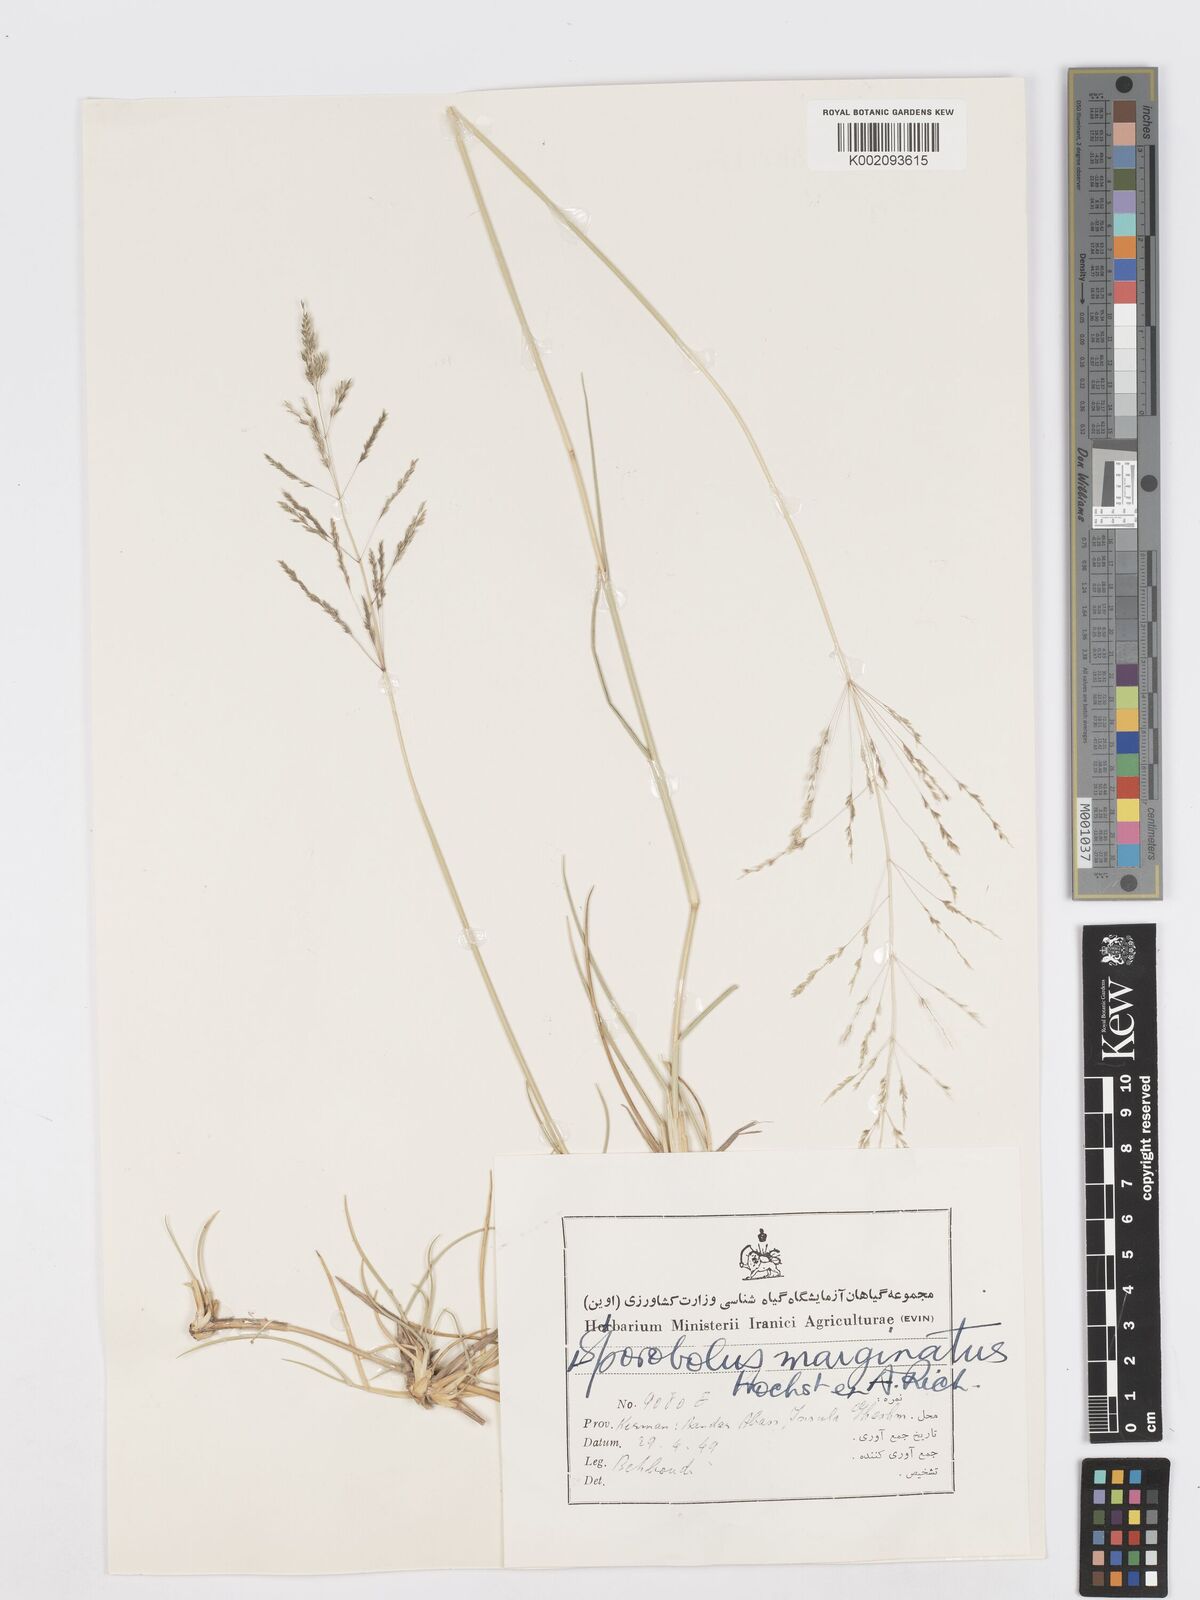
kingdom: Plantae
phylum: Tracheophyta
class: Liliopsida
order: Poales
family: Poaceae
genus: Sporobolus
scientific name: Sporobolus ioclados
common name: Pan dropseed
